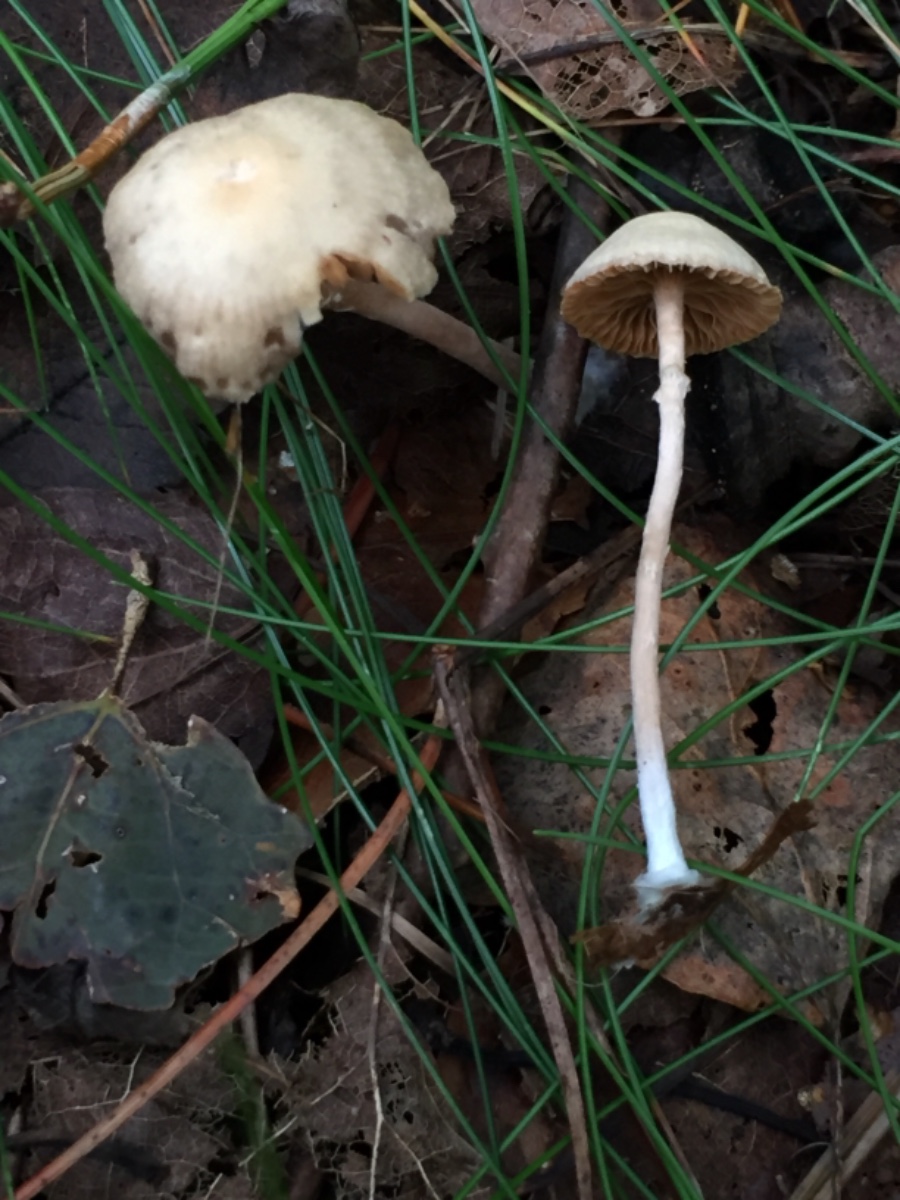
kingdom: Fungi
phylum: Basidiomycota
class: Agaricomycetes
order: Agaricales
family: Tubariaceae
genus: Tubaria
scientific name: Tubaria conspersa
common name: bleg fnughat
